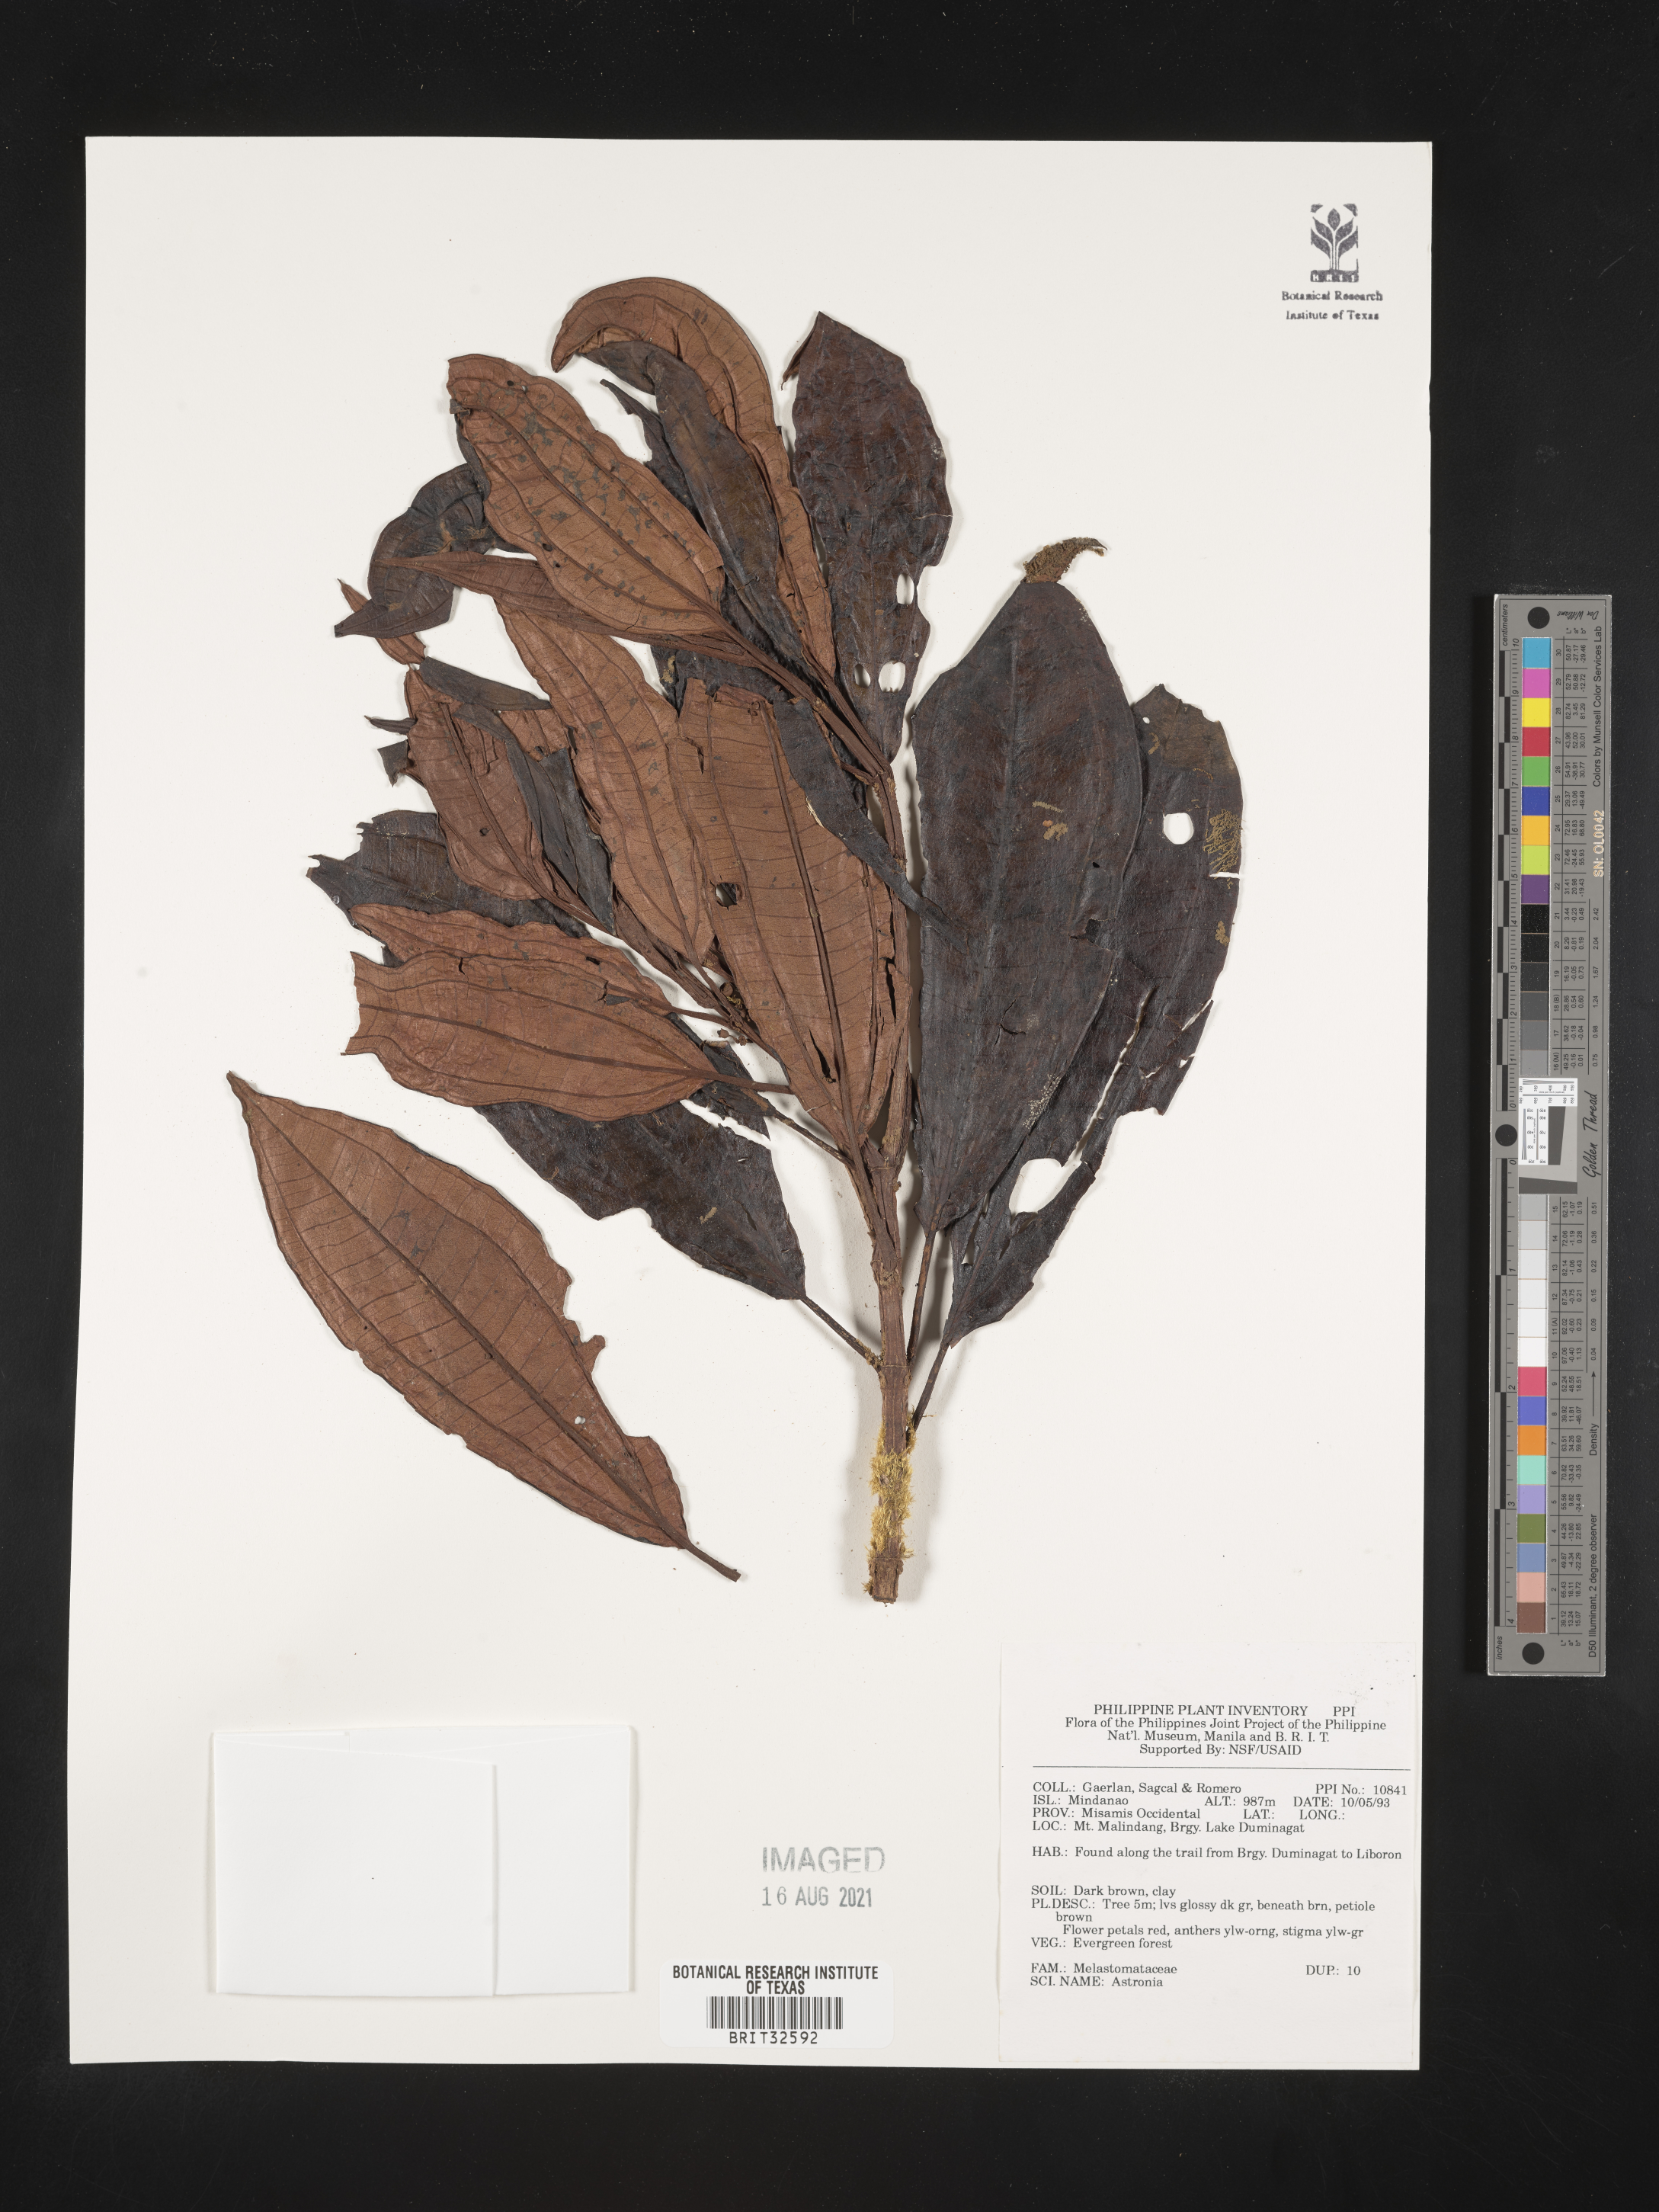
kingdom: Plantae
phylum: Tracheophyta
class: Magnoliopsida
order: Myrtales
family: Melastomataceae
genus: Astronia
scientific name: Astronia
